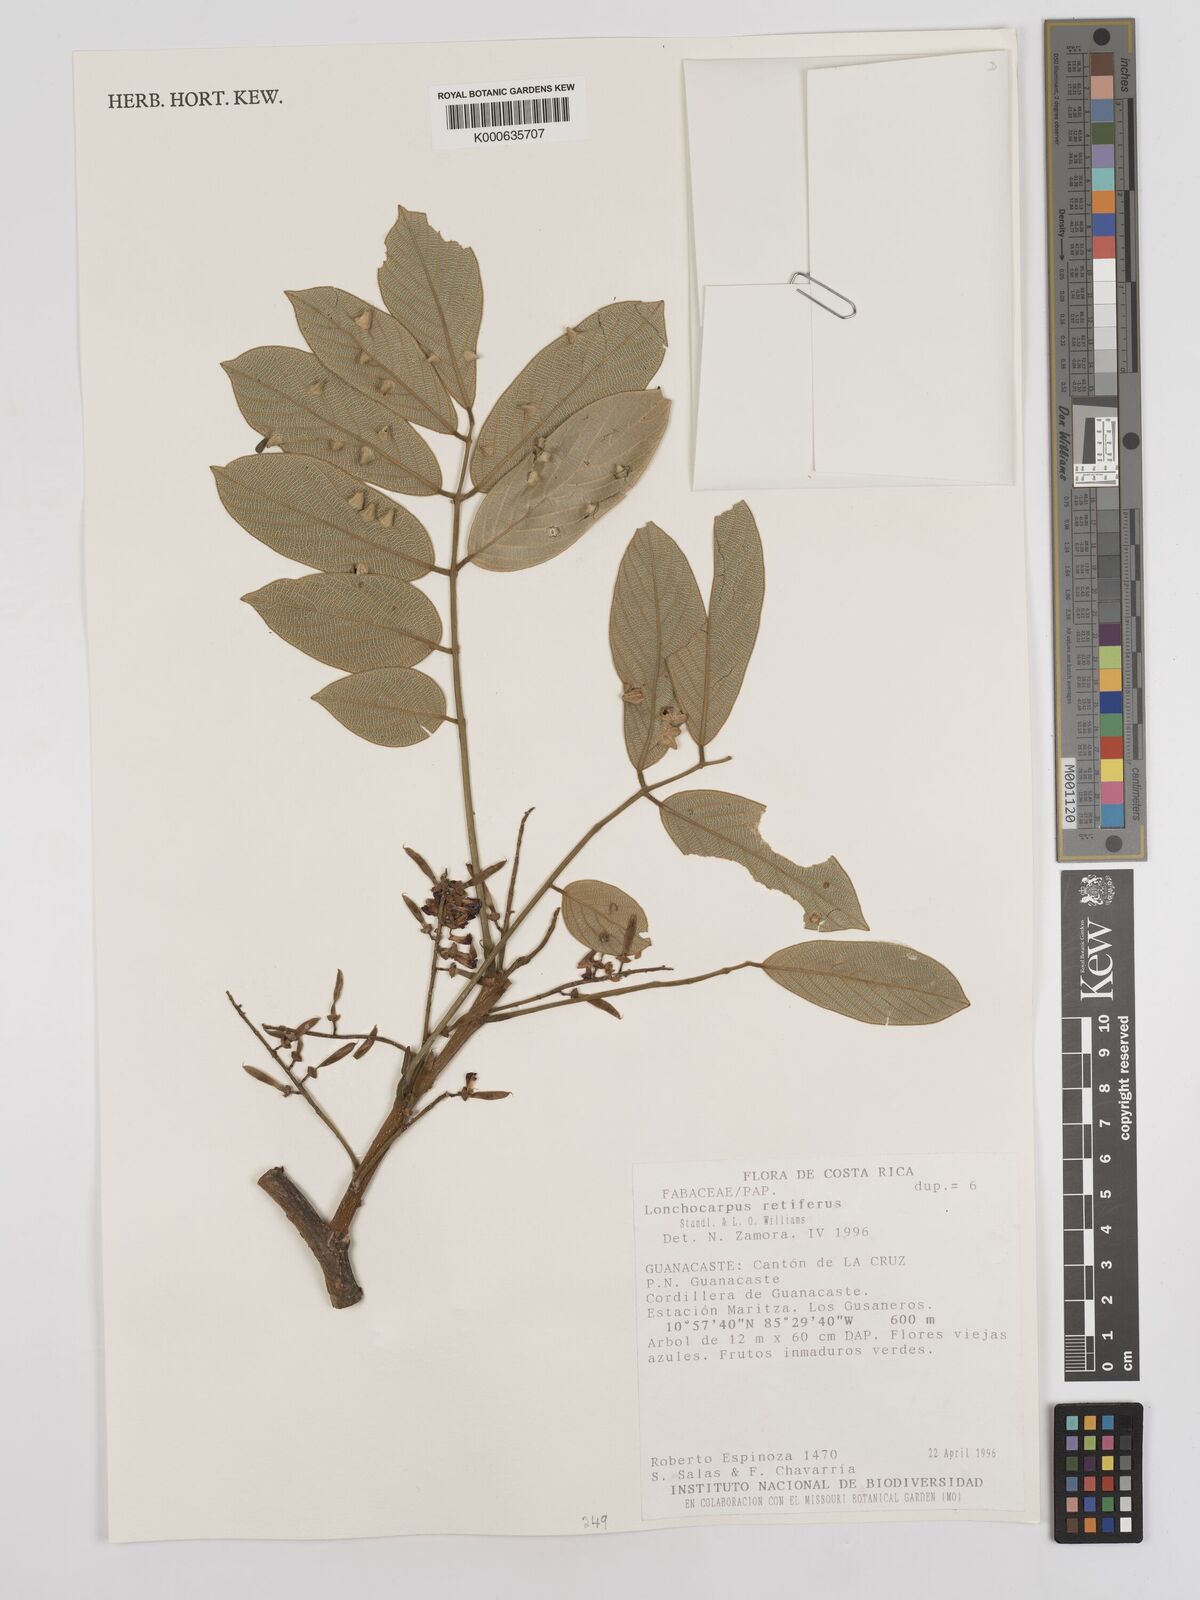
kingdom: Plantae
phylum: Tracheophyta
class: Magnoliopsida
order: Fabales
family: Fabaceae
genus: Lonchocarpus
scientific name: Lonchocarpus
